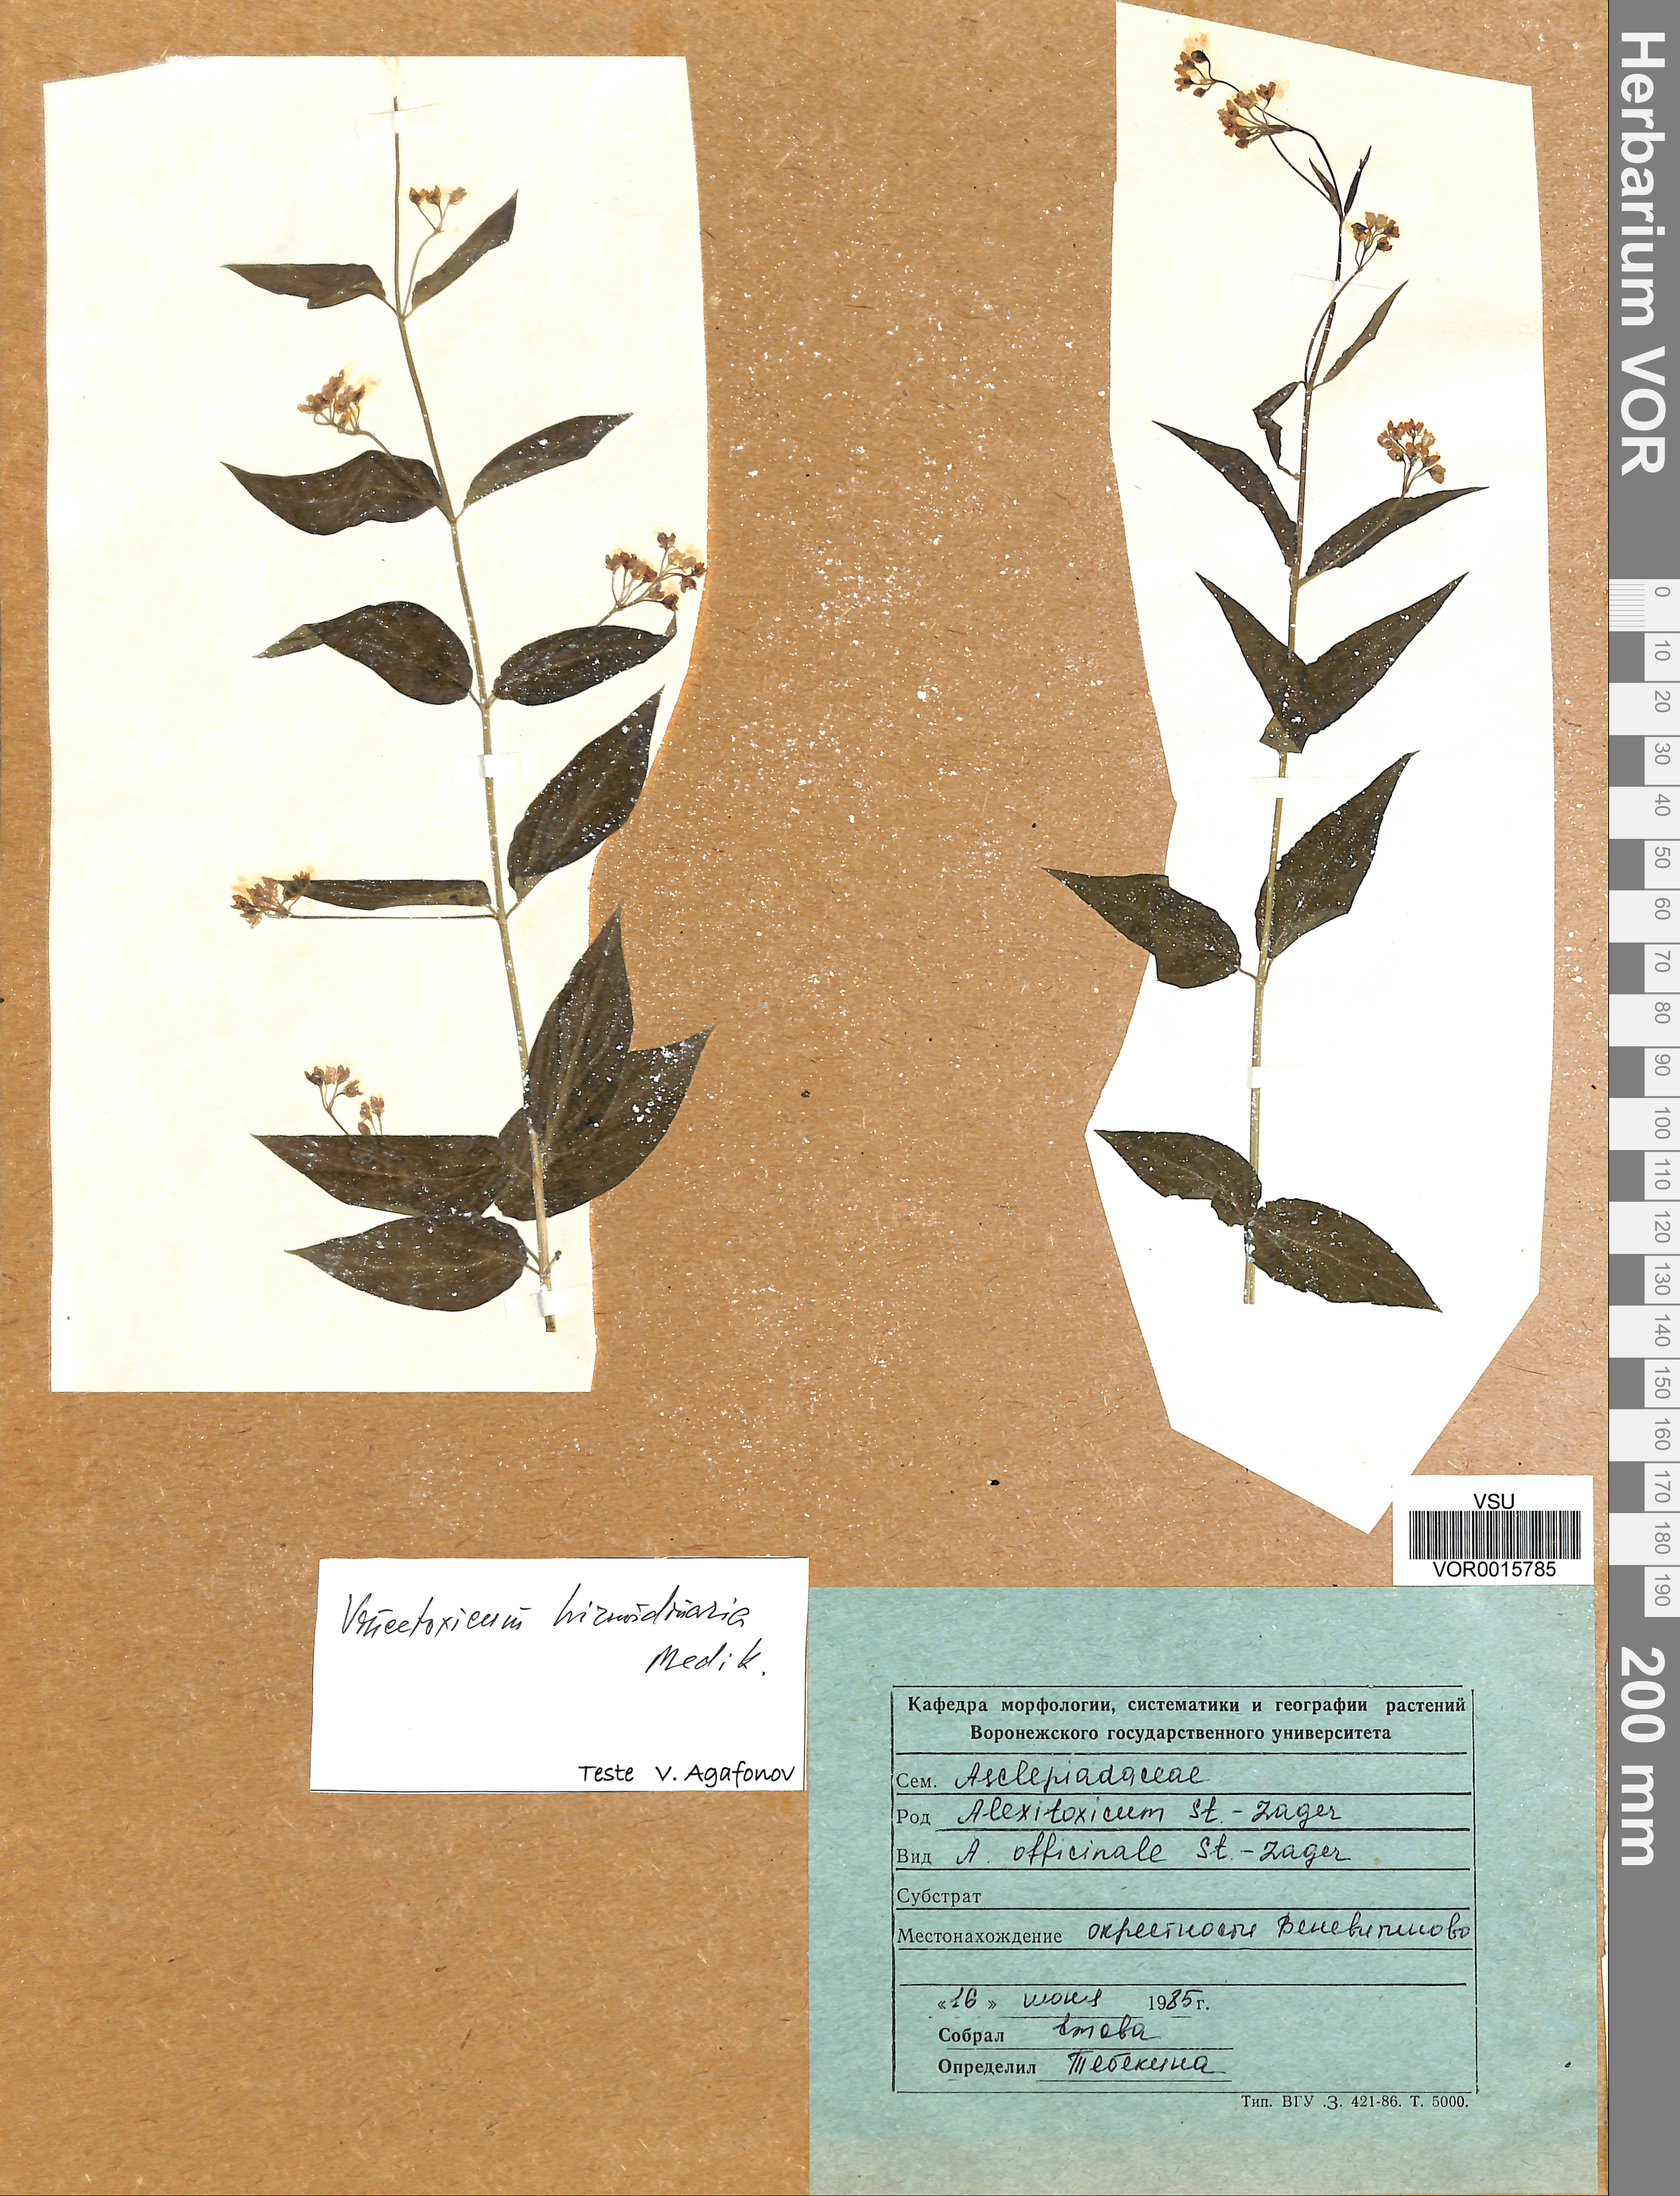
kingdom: Plantae
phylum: Tracheophyta
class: Magnoliopsida
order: Gentianales
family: Apocynaceae
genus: Vincetoxicum
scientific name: Vincetoxicum hirundinaria
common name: White swallowwort
